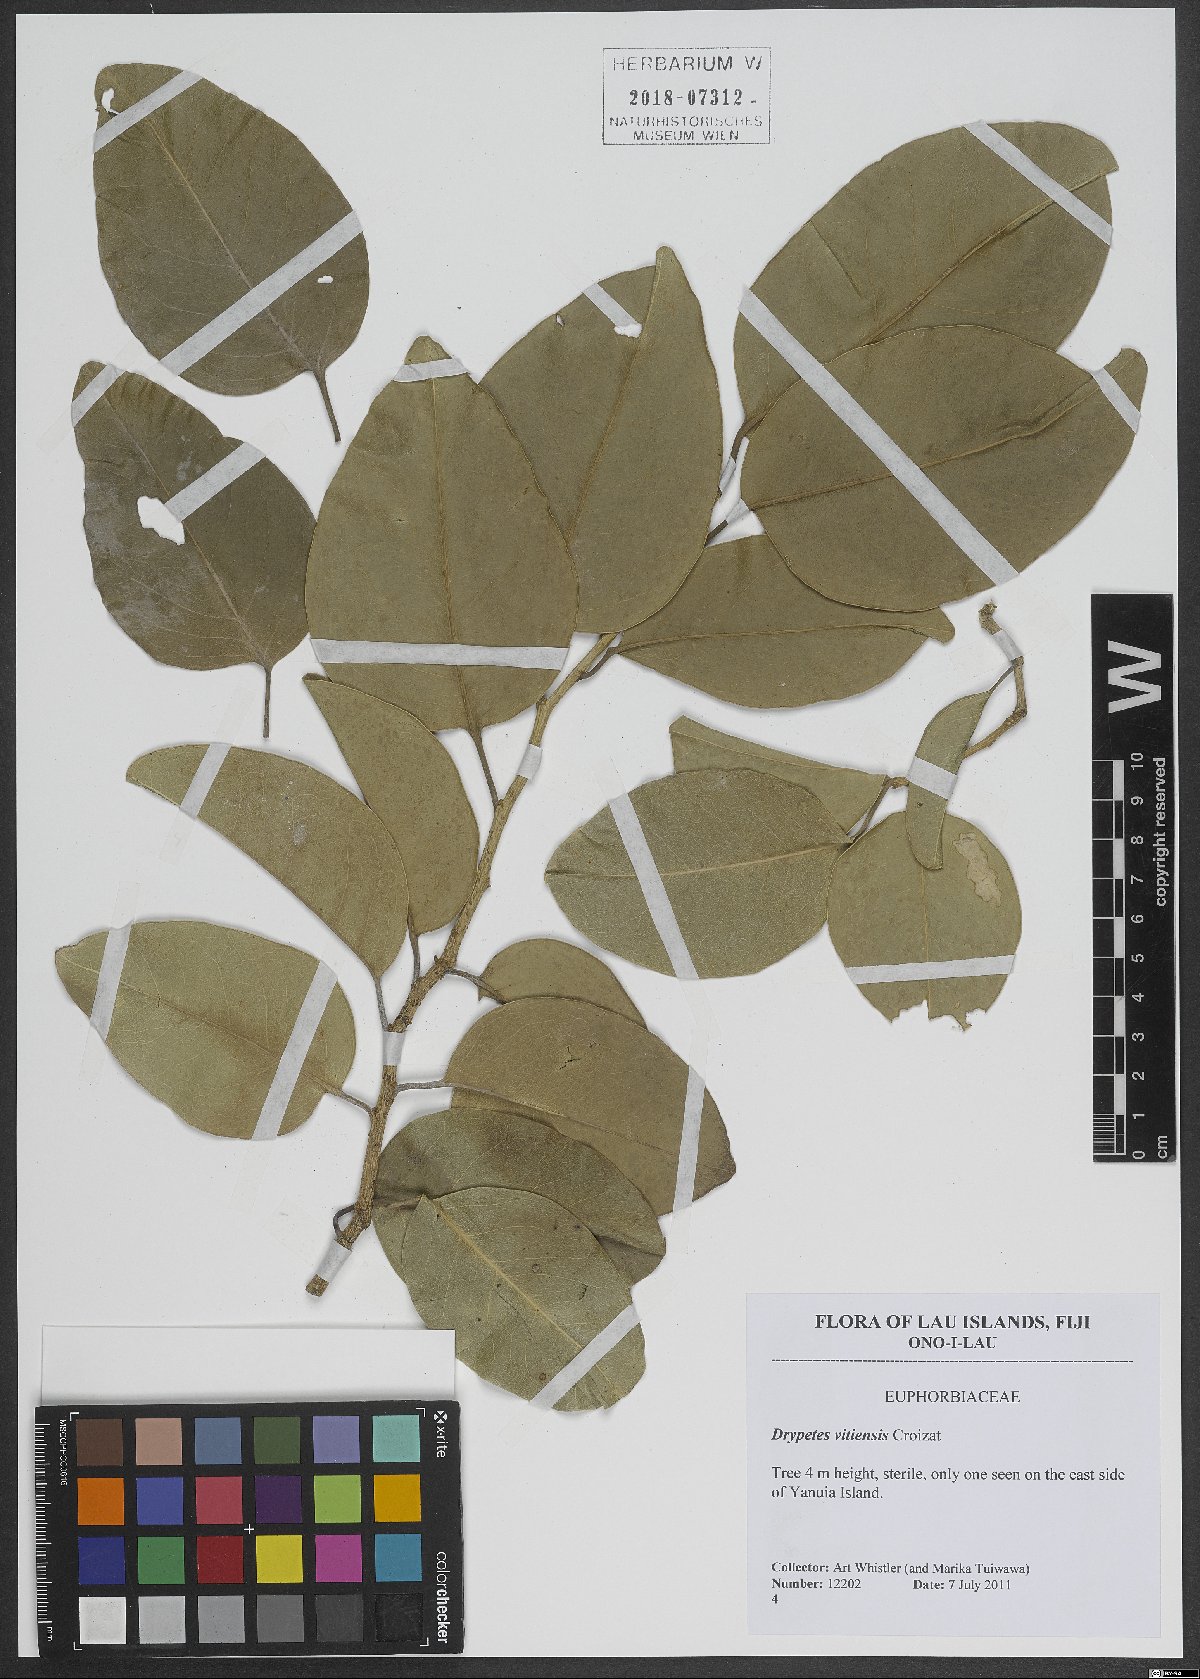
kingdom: Plantae
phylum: Tracheophyta
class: Magnoliopsida
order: Malpighiales
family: Putranjivaceae
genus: Drypetes
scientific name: Drypetes vitiensis
